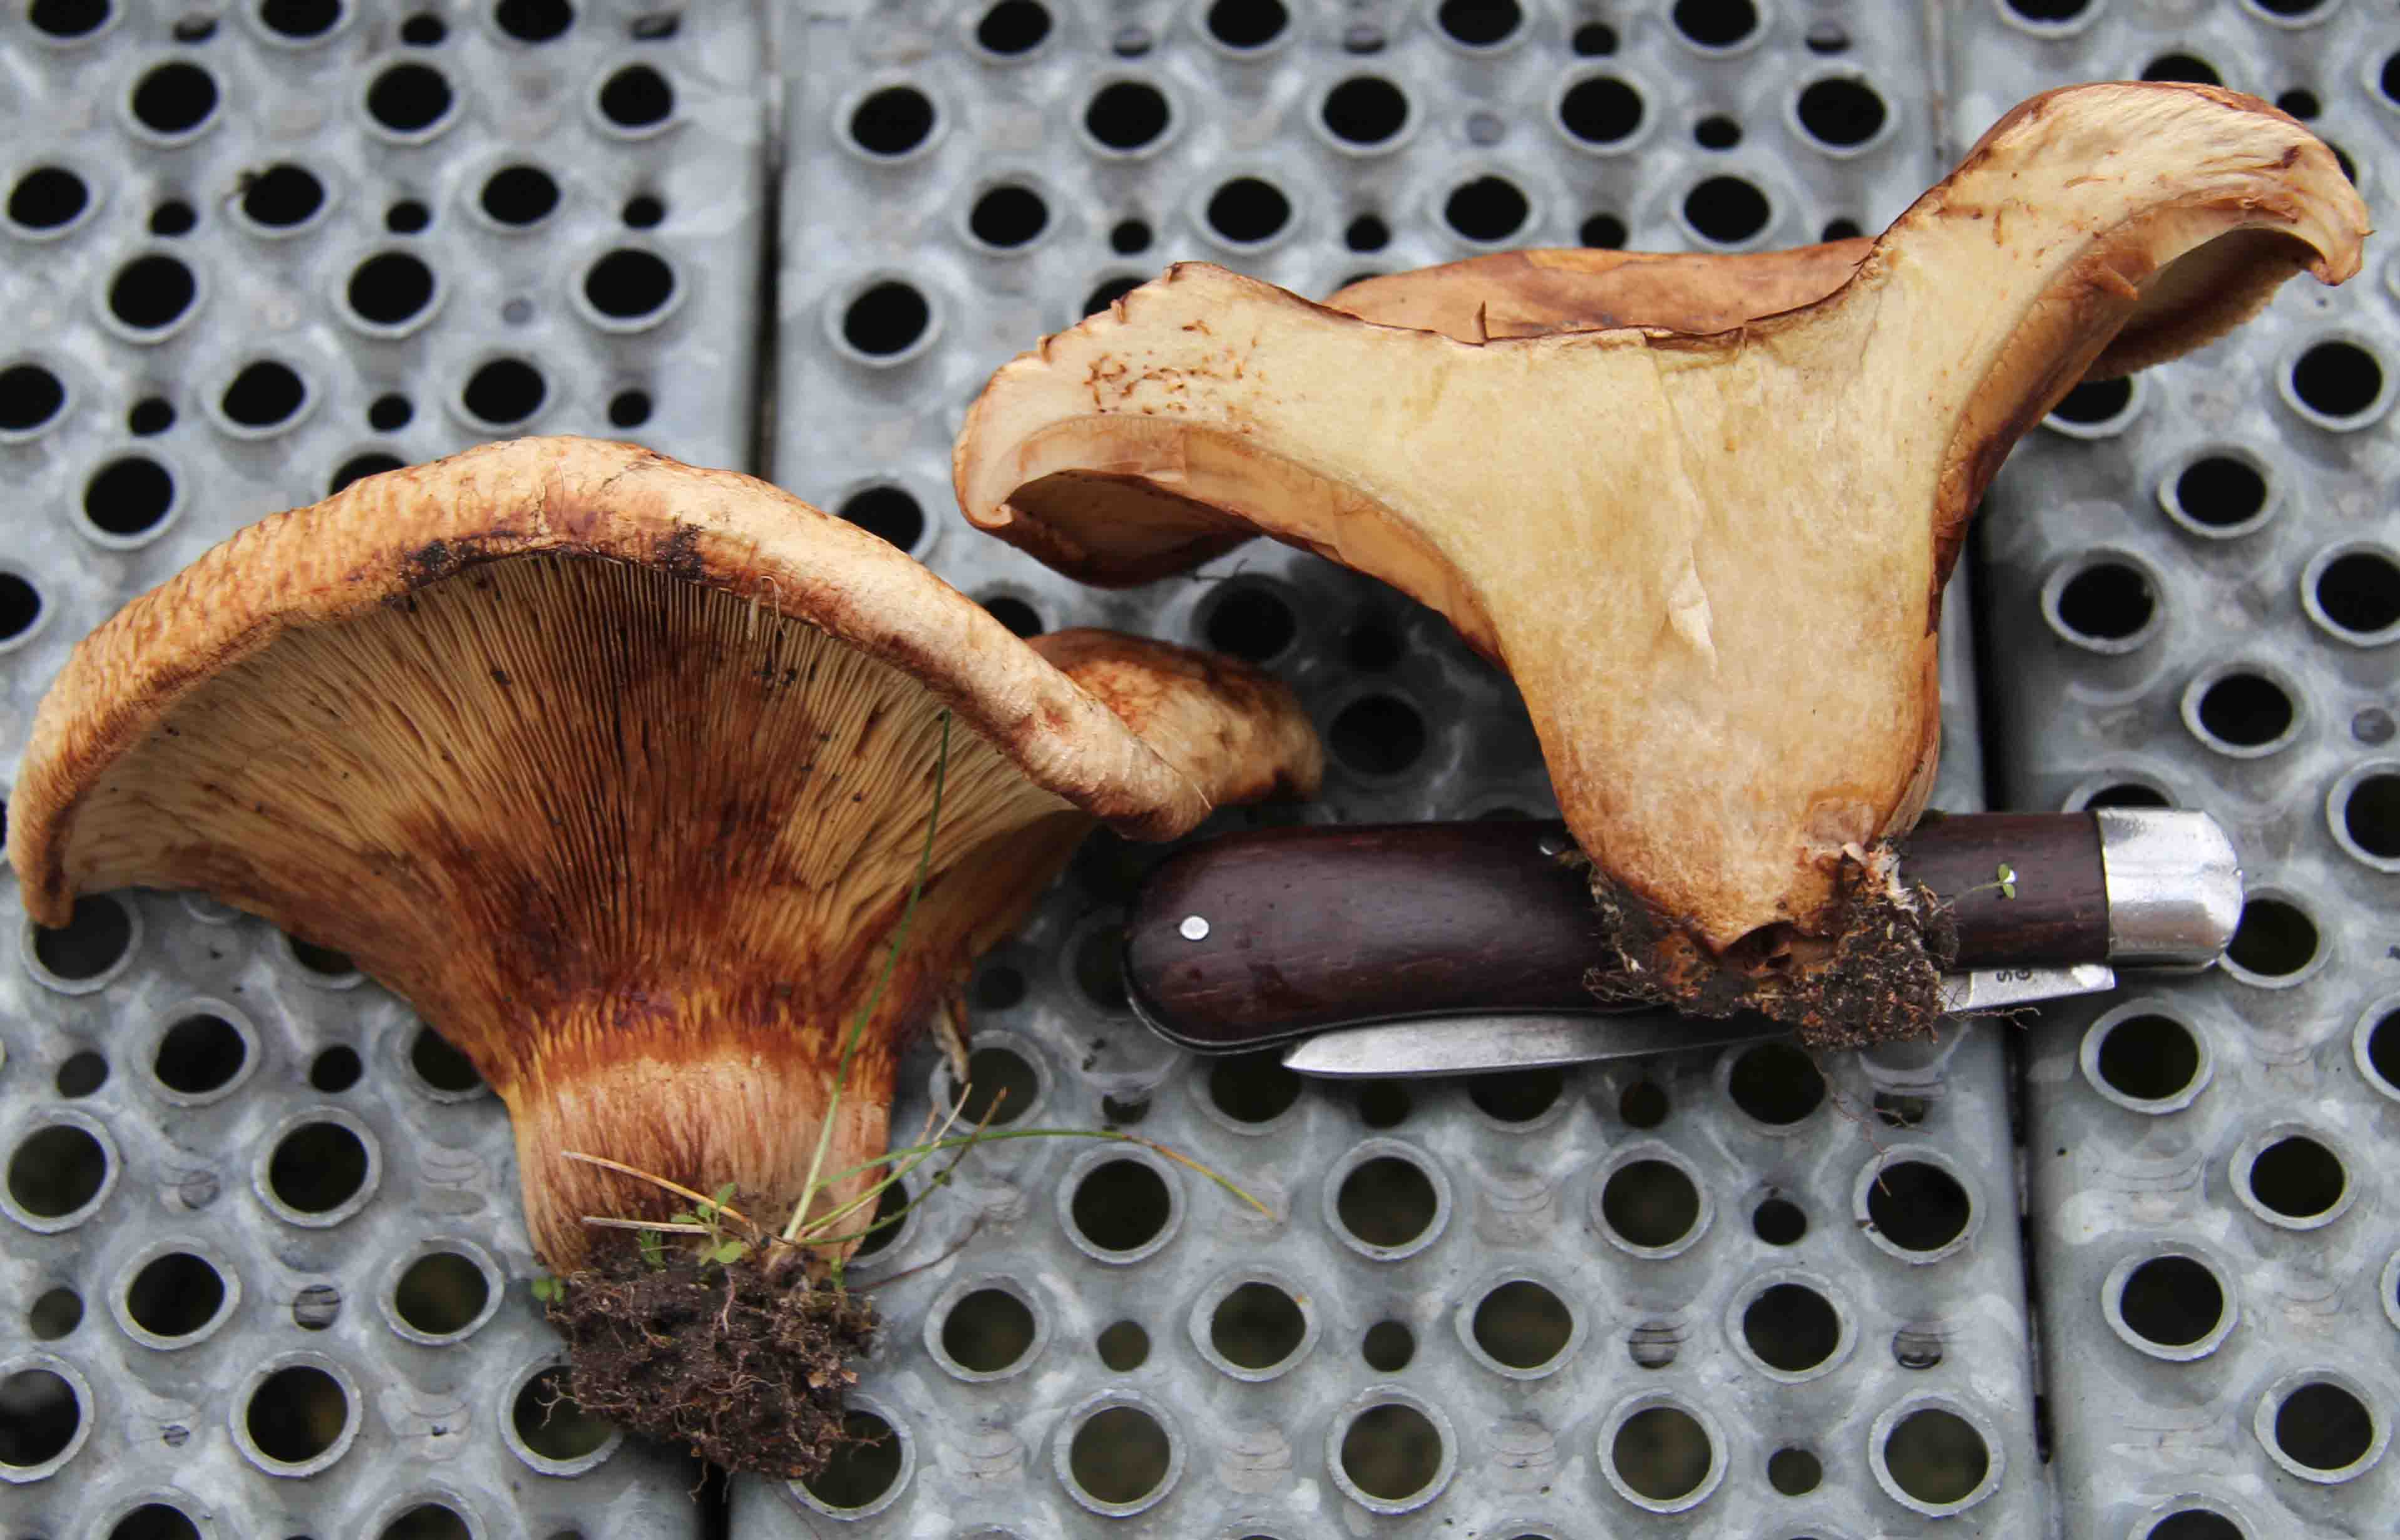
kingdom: Fungi
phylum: Basidiomycota
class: Agaricomycetes
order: Boletales
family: Paxillaceae
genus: Paxillus
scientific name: Paxillus ammoniavirescens
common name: olivensporet netbladhat
